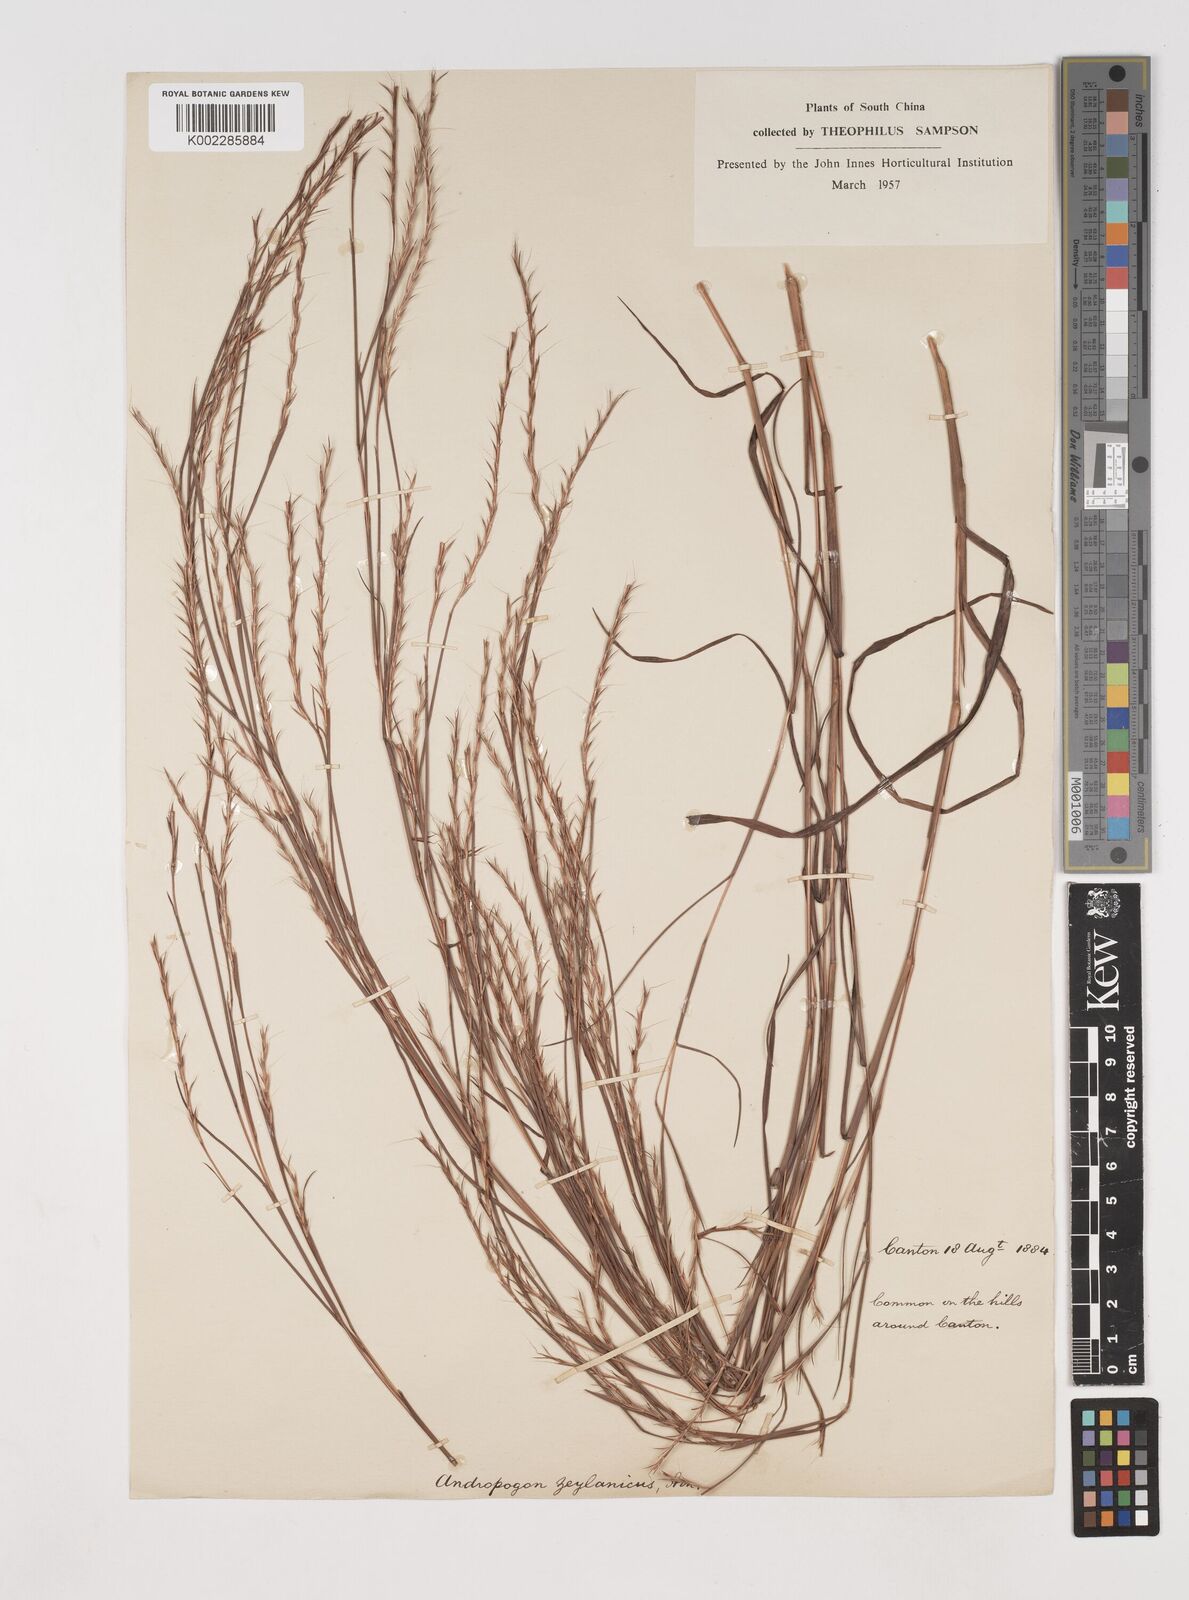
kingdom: Plantae
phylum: Tracheophyta
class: Liliopsida
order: Poales
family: Poaceae
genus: Schizachyrium
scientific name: Schizachyrium sanguineum
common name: Crimson bluestem
